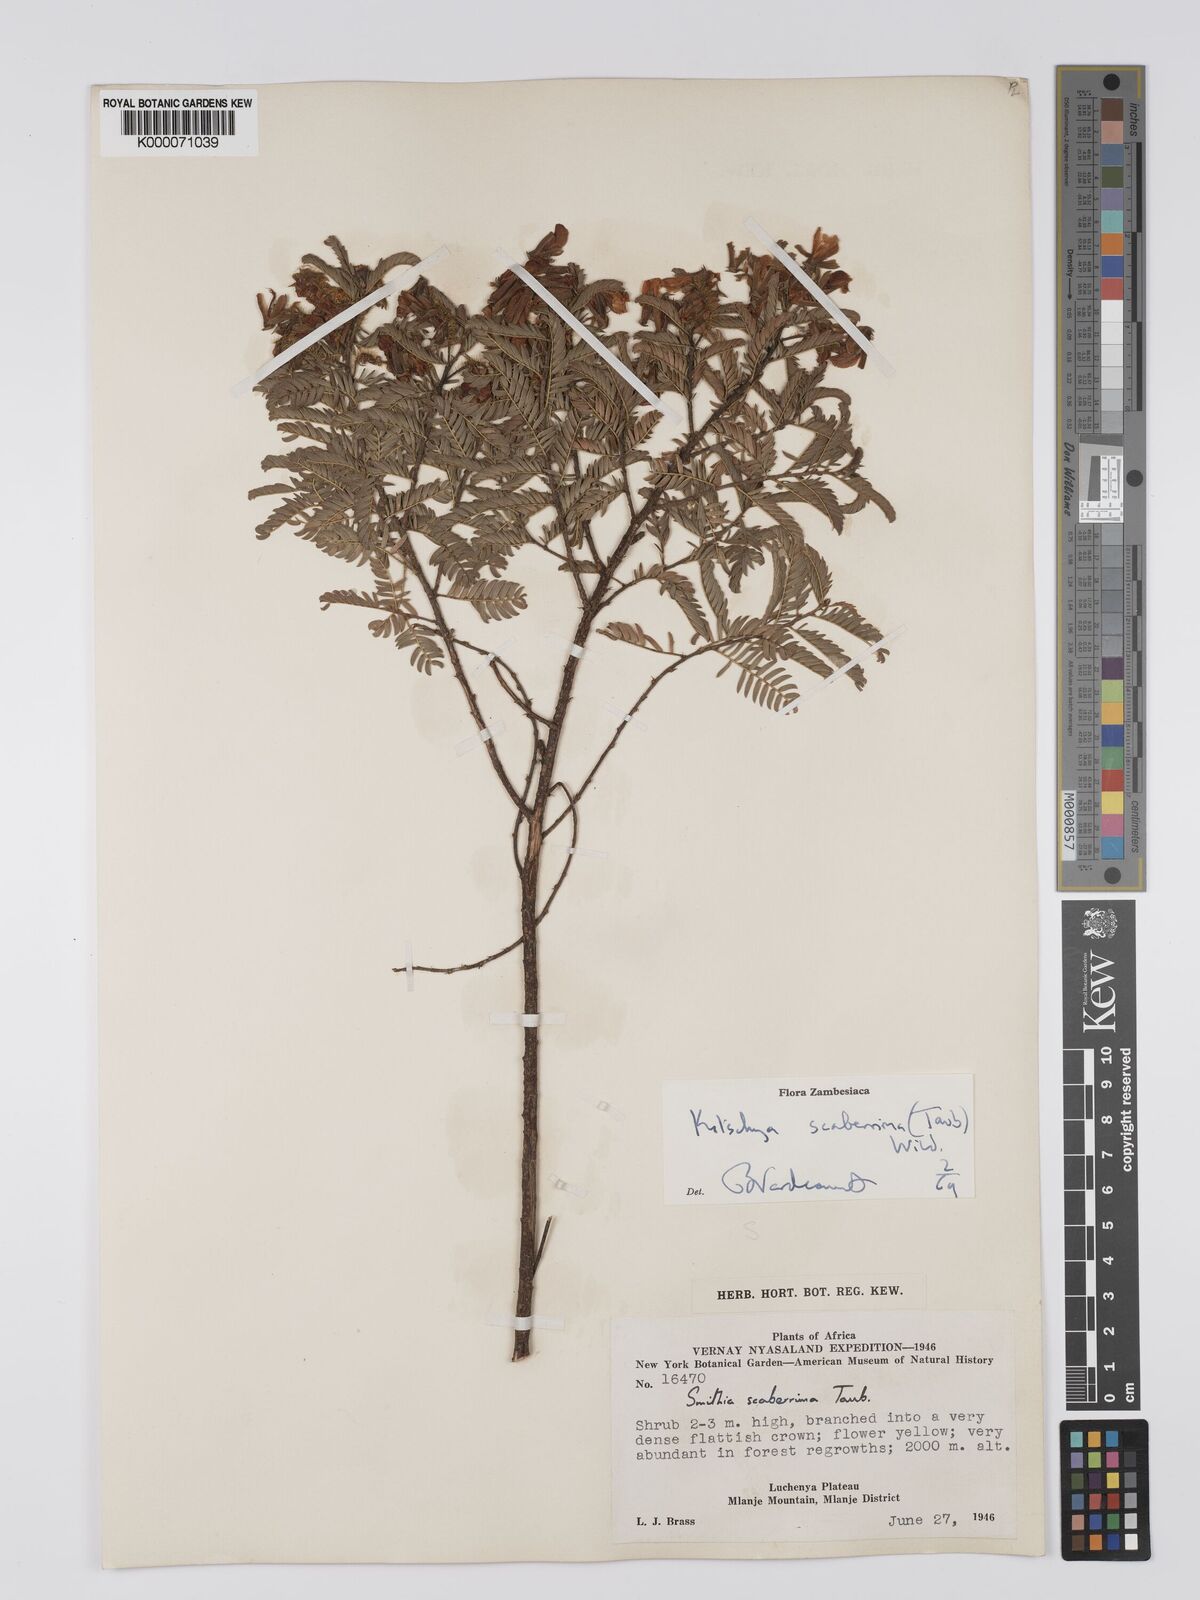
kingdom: Plantae
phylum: Tracheophyta
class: Magnoliopsida
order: Fabales
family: Fabaceae
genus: Kotschya
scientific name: Kotschya scaberrima
